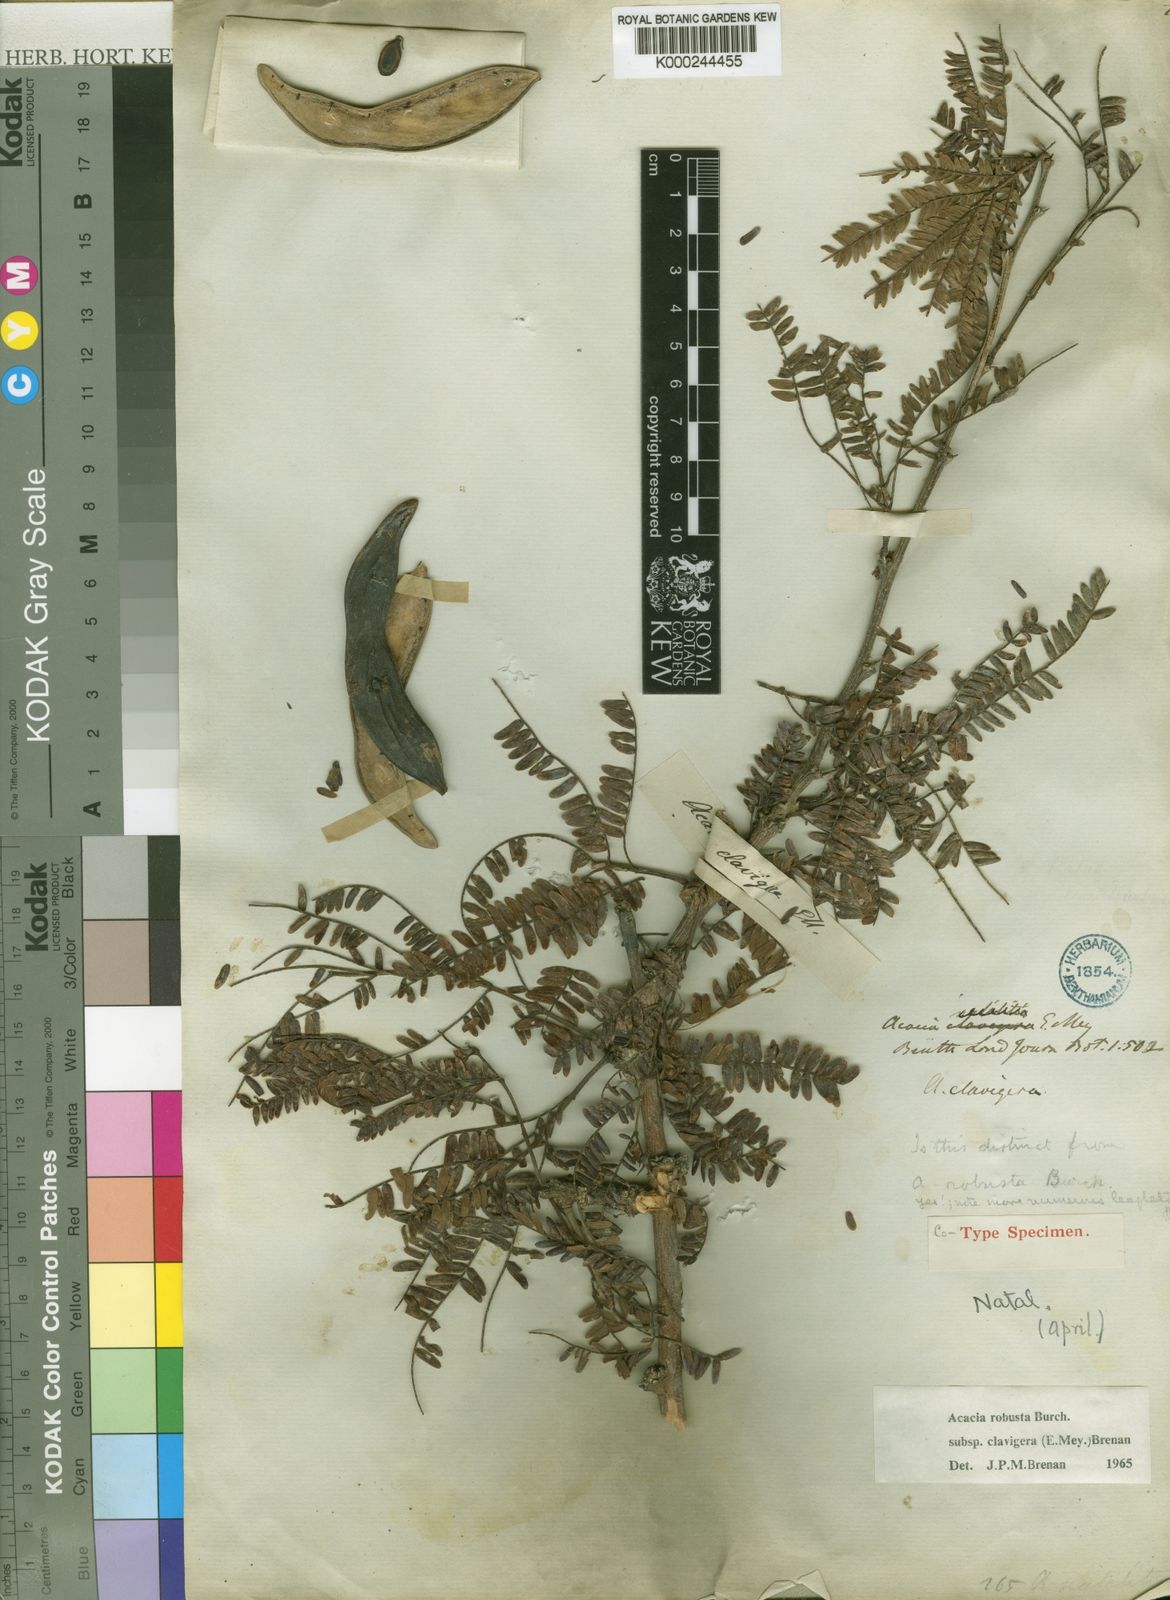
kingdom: Plantae
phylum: Tracheophyta
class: Magnoliopsida
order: Fabales
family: Fabaceae
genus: Vachellia
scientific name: Vachellia robusta
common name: Ankle thorn
